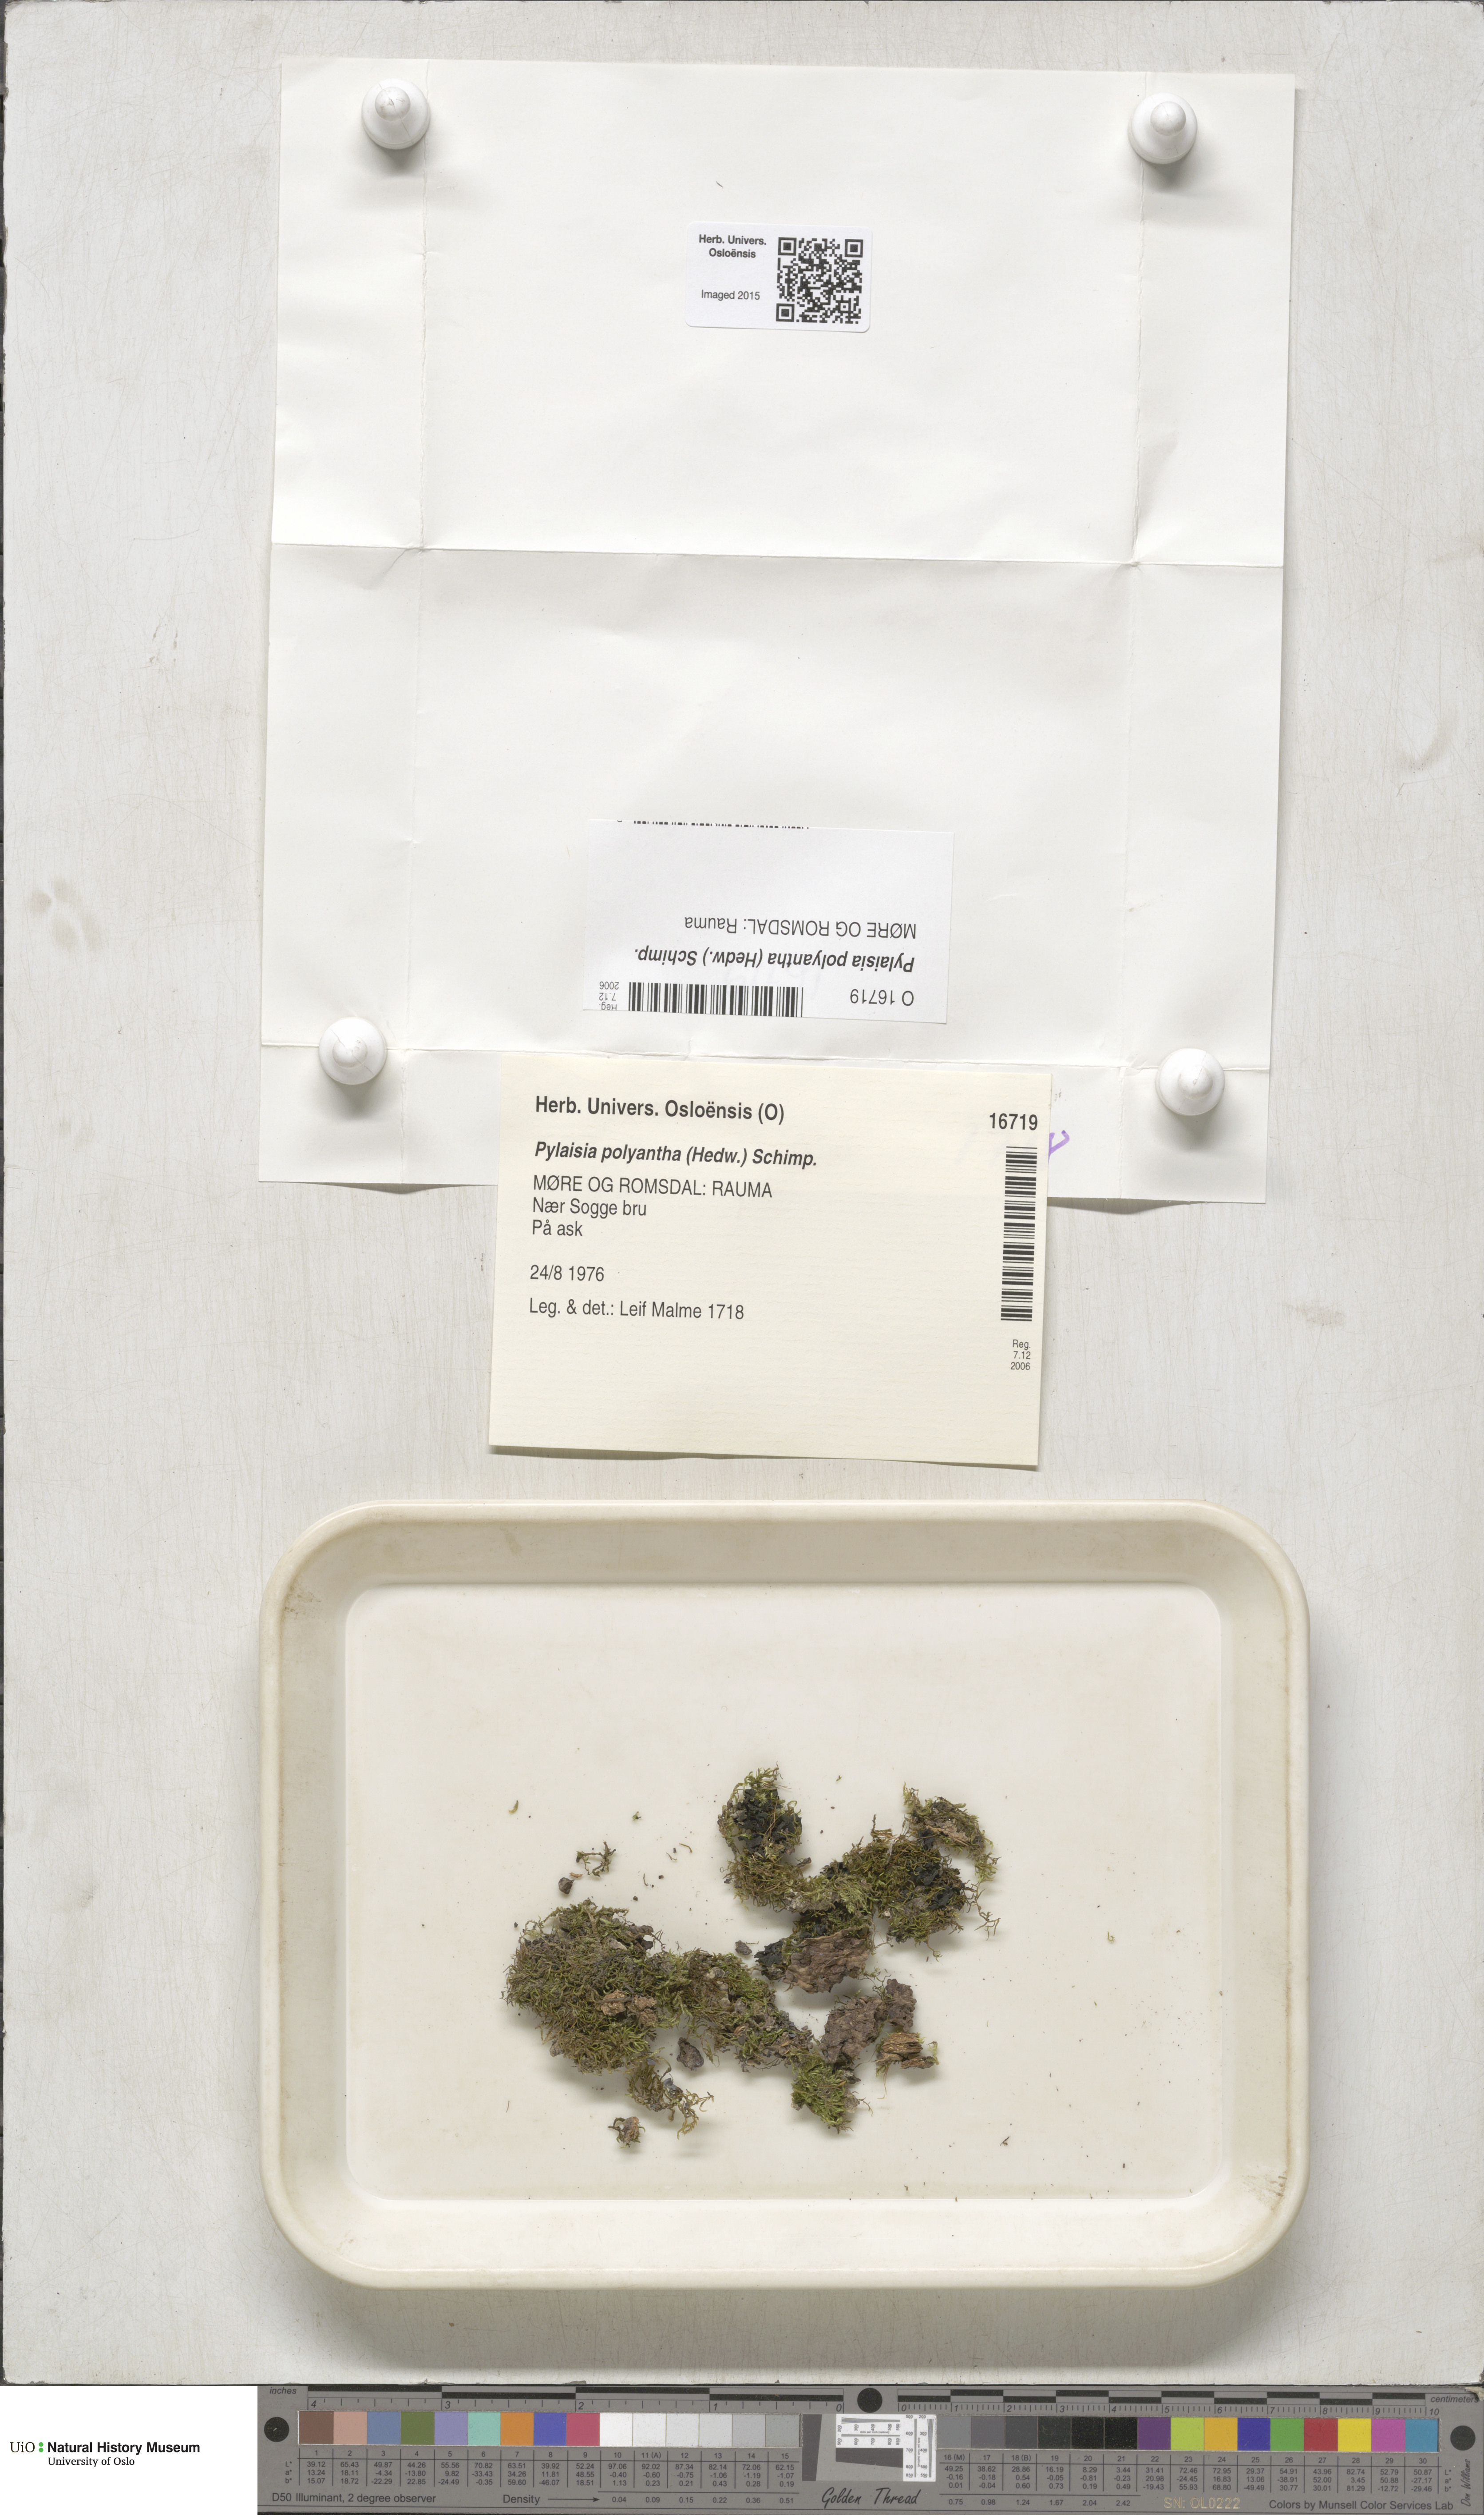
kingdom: Plantae
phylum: Bryophyta
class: Bryopsida
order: Hypnales
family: Pylaisiaceae
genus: Pylaisia
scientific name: Pylaisia polyantha
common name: Many-flowered leskea
